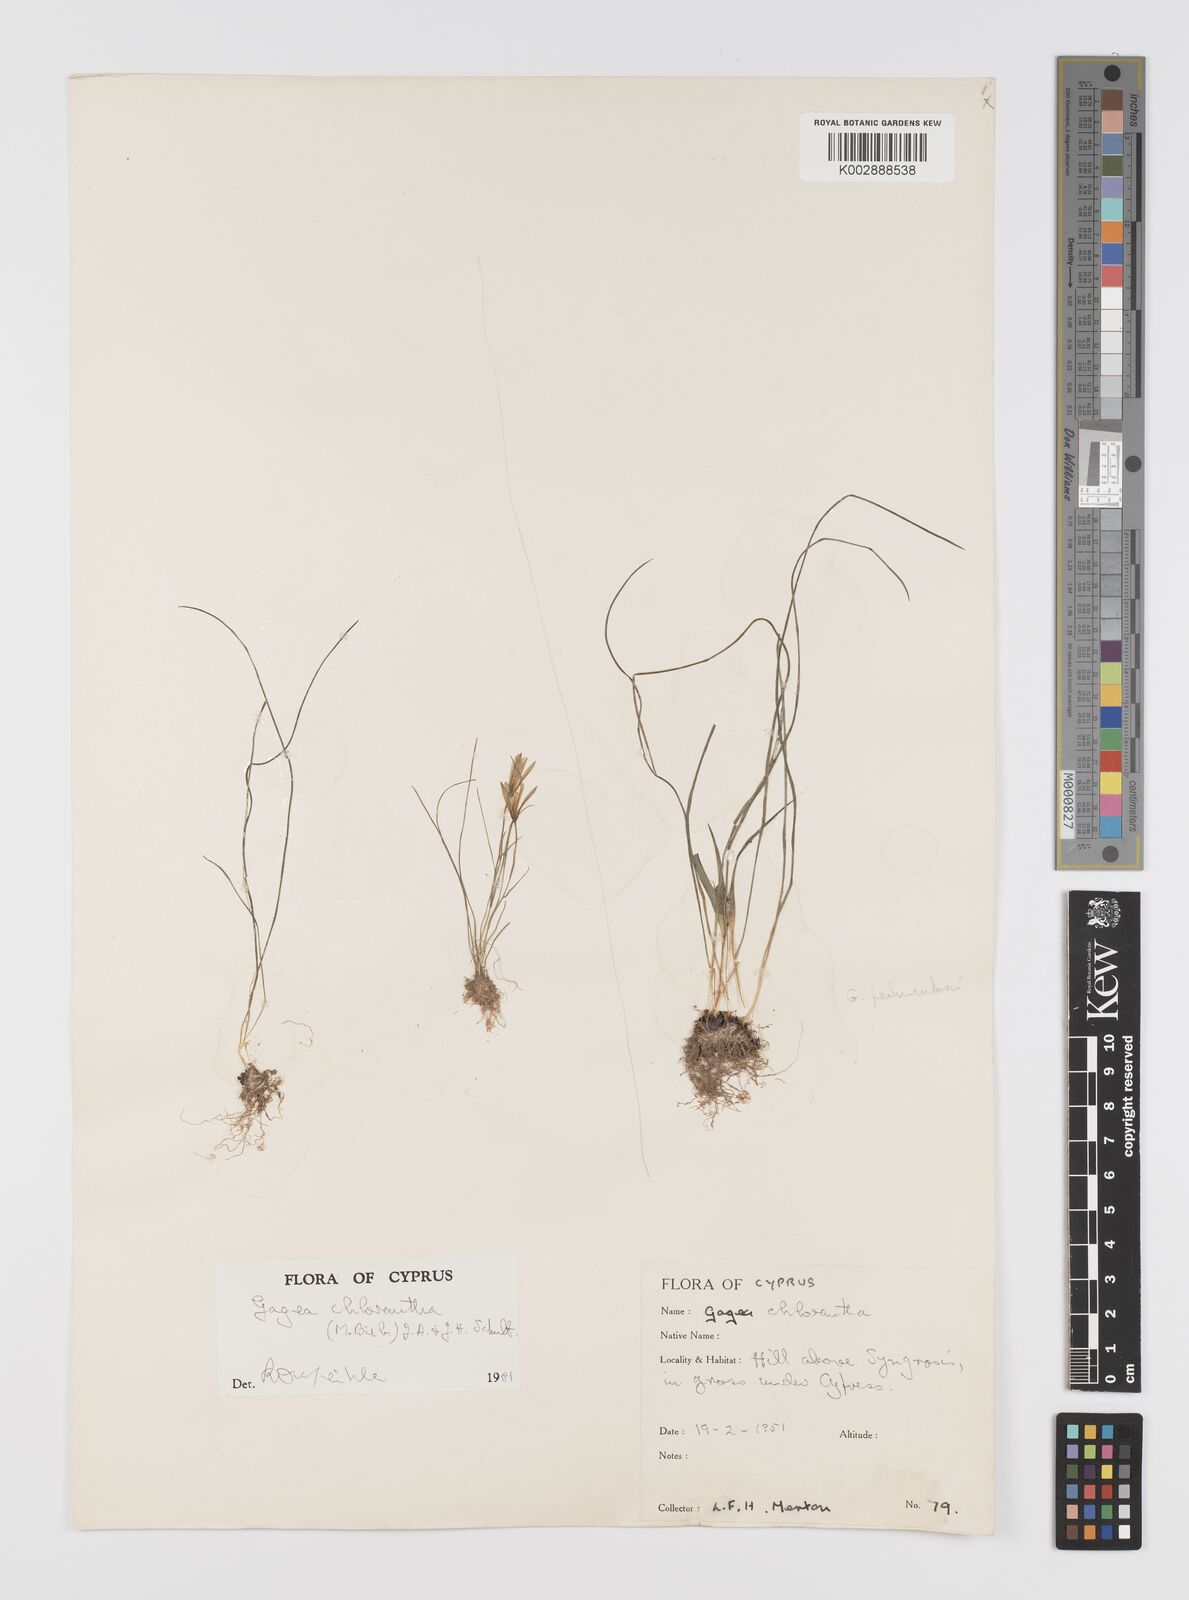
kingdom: Plantae
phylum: Tracheophyta
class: Liliopsida
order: Liliales
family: Liliaceae
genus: Gagea
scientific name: Gagea chlorantha
